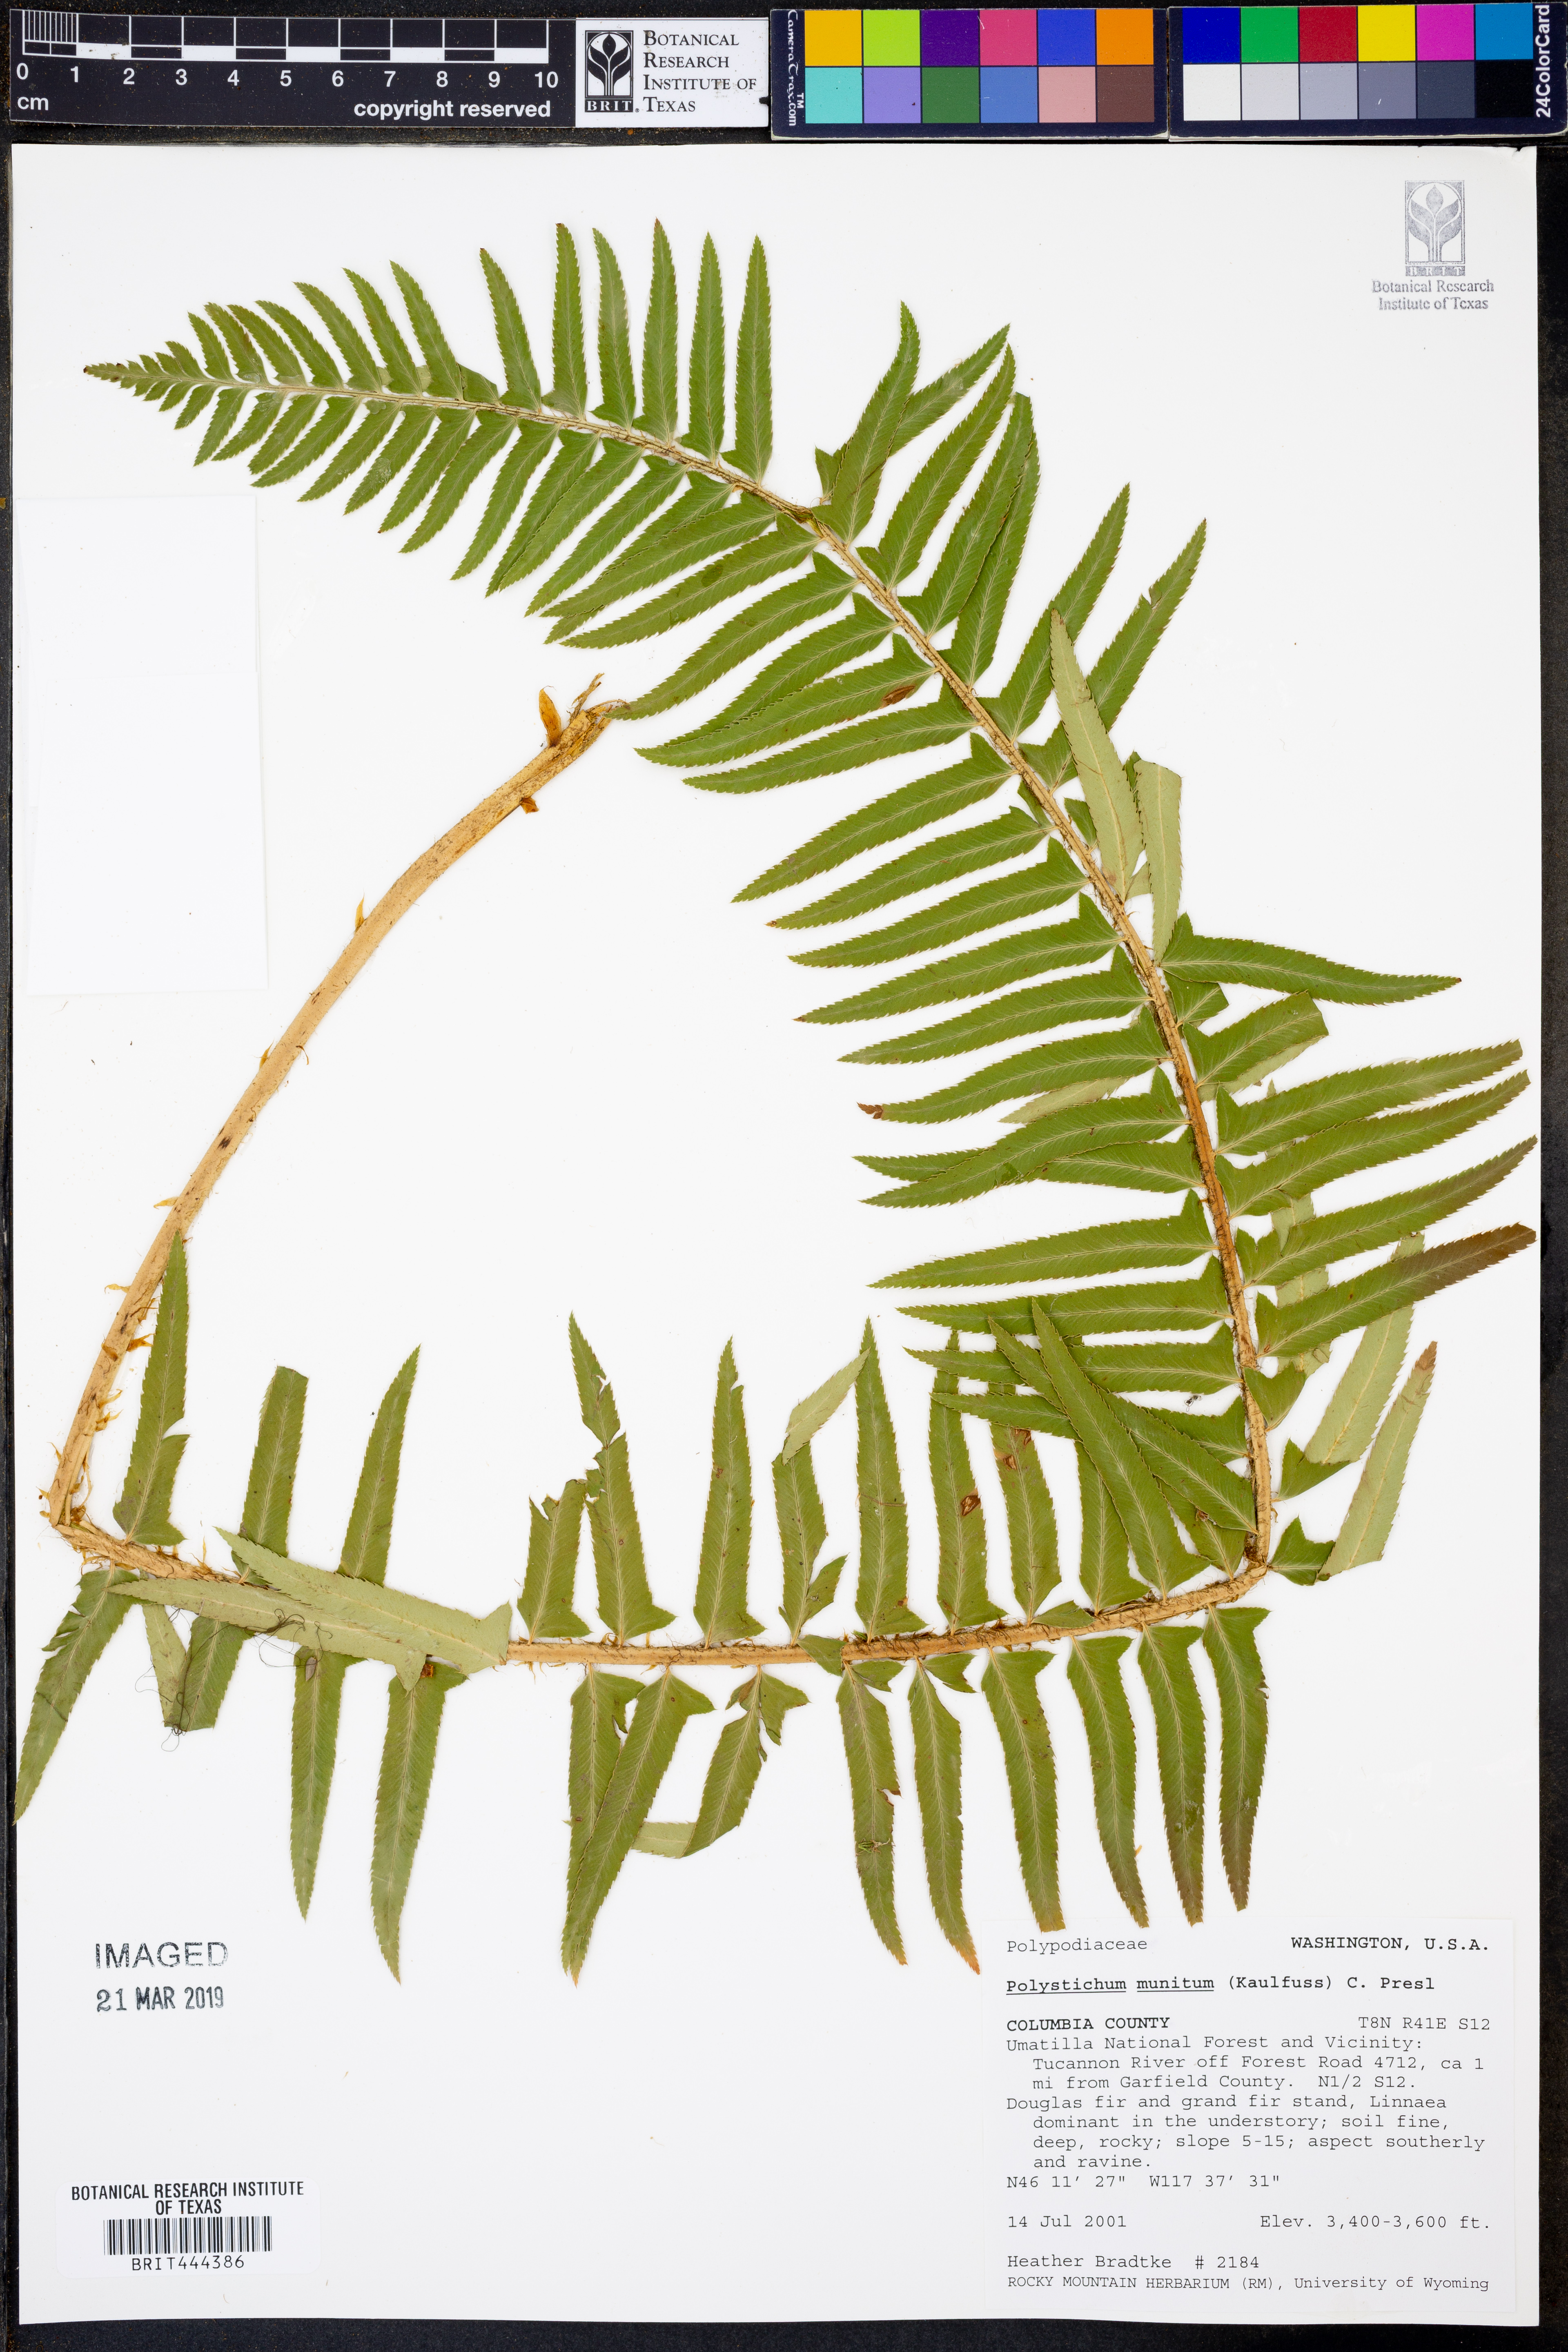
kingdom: Plantae
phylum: Tracheophyta
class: Polypodiopsida
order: Polypodiales
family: Dryopteridaceae
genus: Polystichum
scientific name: Polystichum munitum
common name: Western sword-fern
